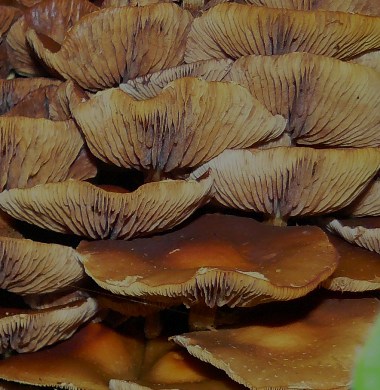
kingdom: Fungi
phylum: Basidiomycota
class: Agaricomycetes
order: Agaricales
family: Strophariaceae
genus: Kuehneromyces
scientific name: Kuehneromyces mutabilis
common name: foranderlig skælhat
